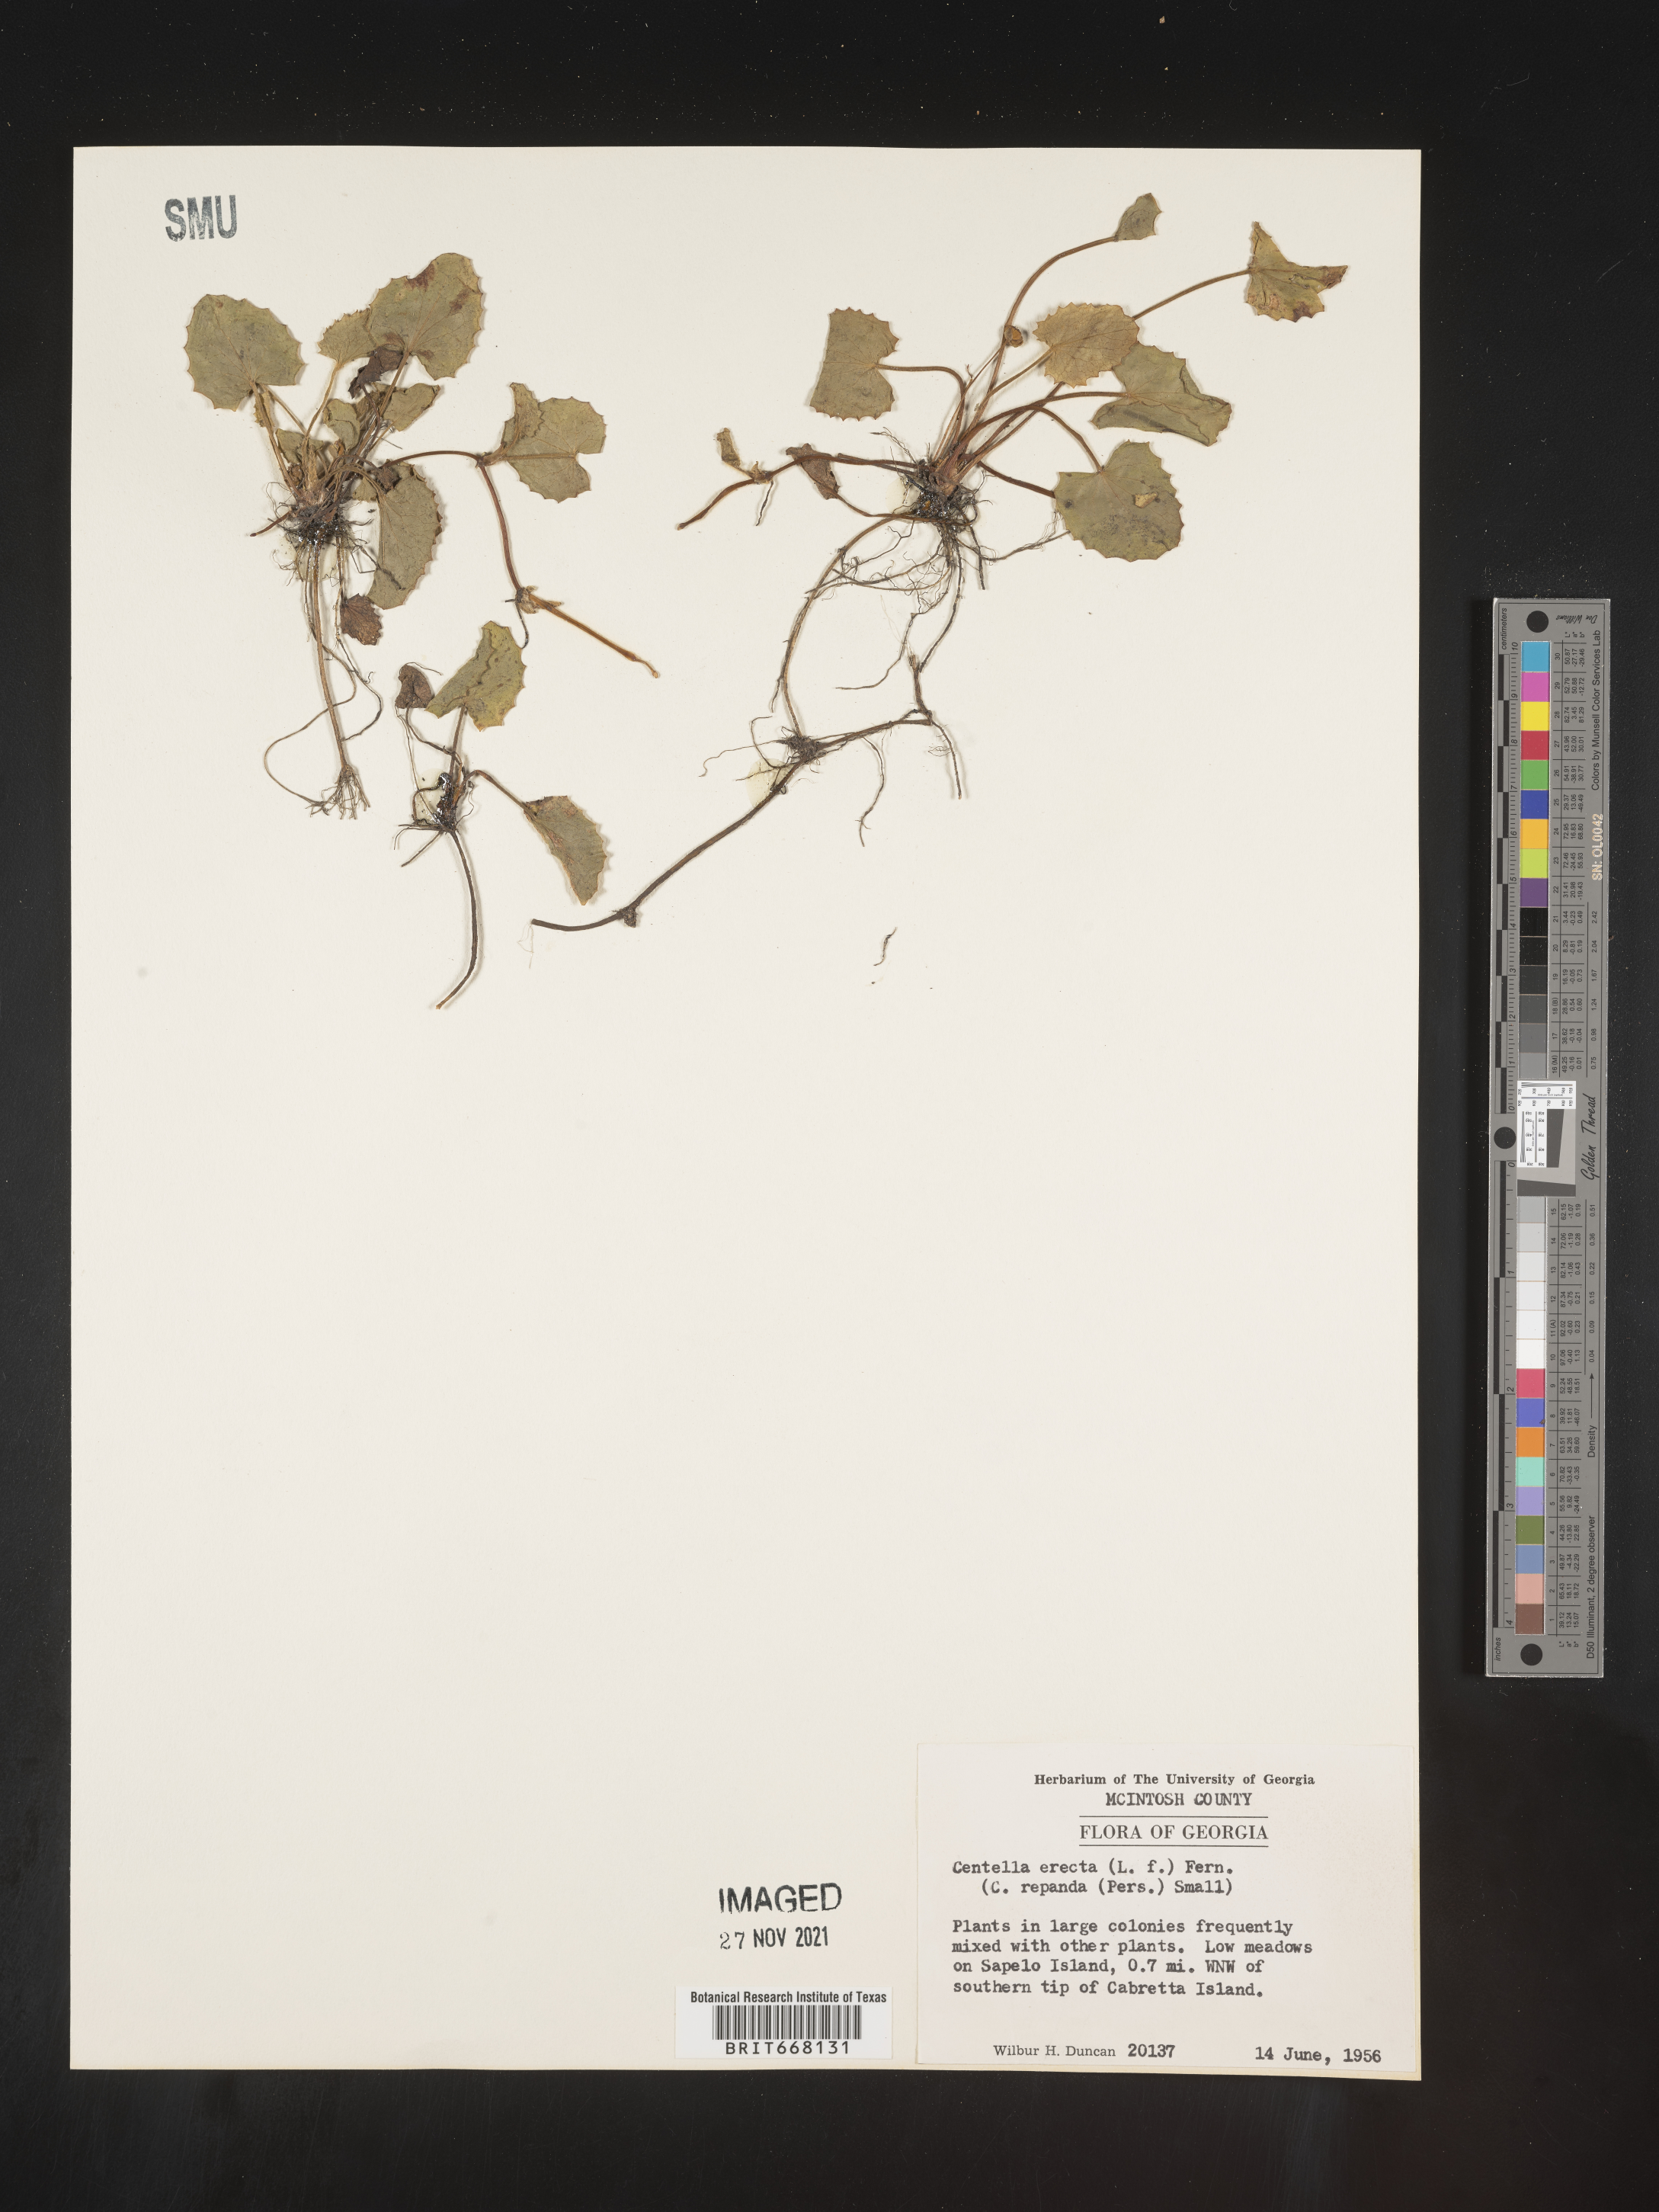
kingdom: Plantae
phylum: Tracheophyta
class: Magnoliopsida
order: Apiales
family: Apiaceae
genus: Centella
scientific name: Centella
